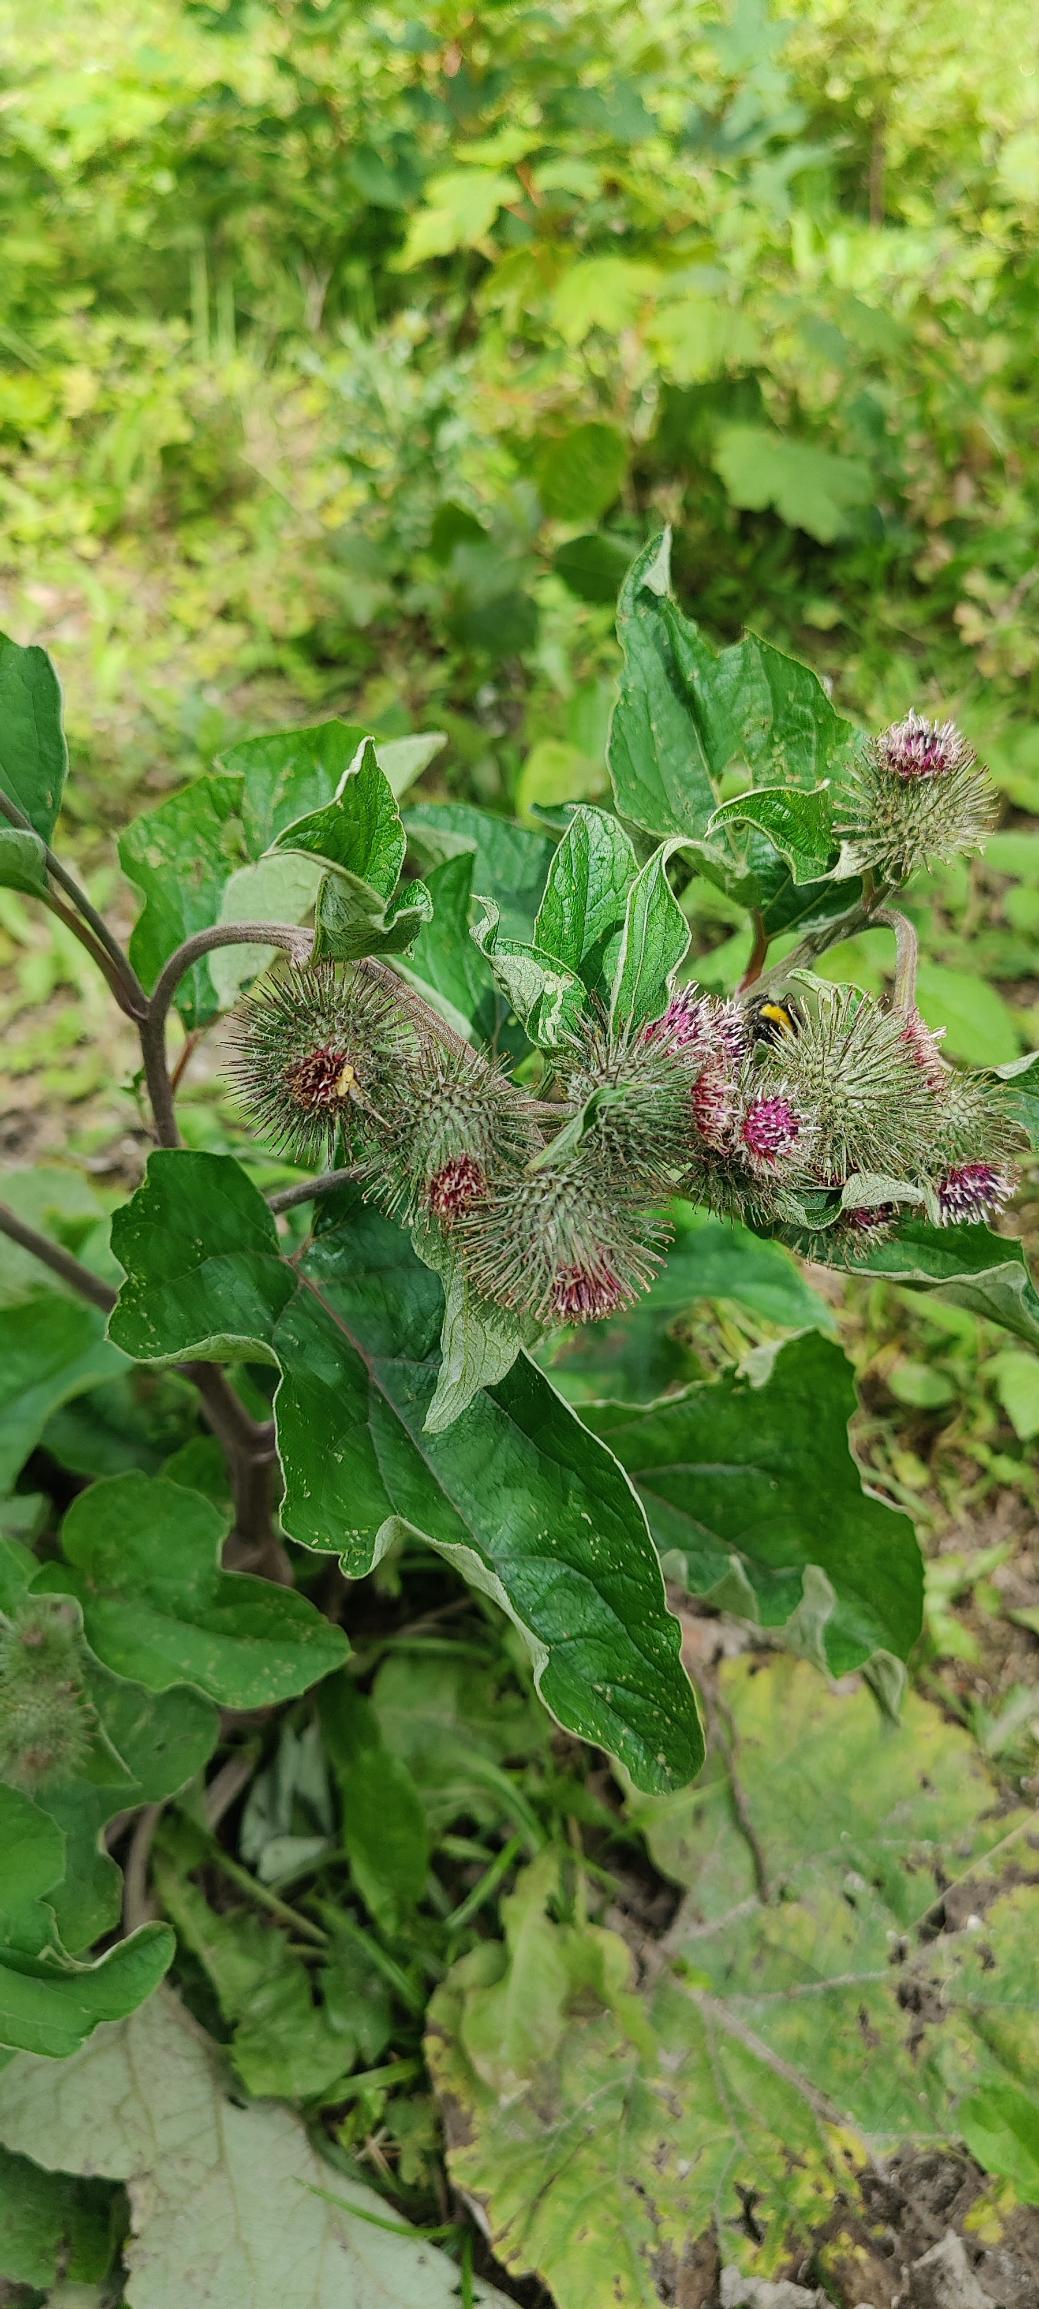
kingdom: Plantae
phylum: Tracheophyta
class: Magnoliopsida
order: Asterales
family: Asteraceae
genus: Arctium
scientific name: Arctium nemorosum
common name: Skov-burre
